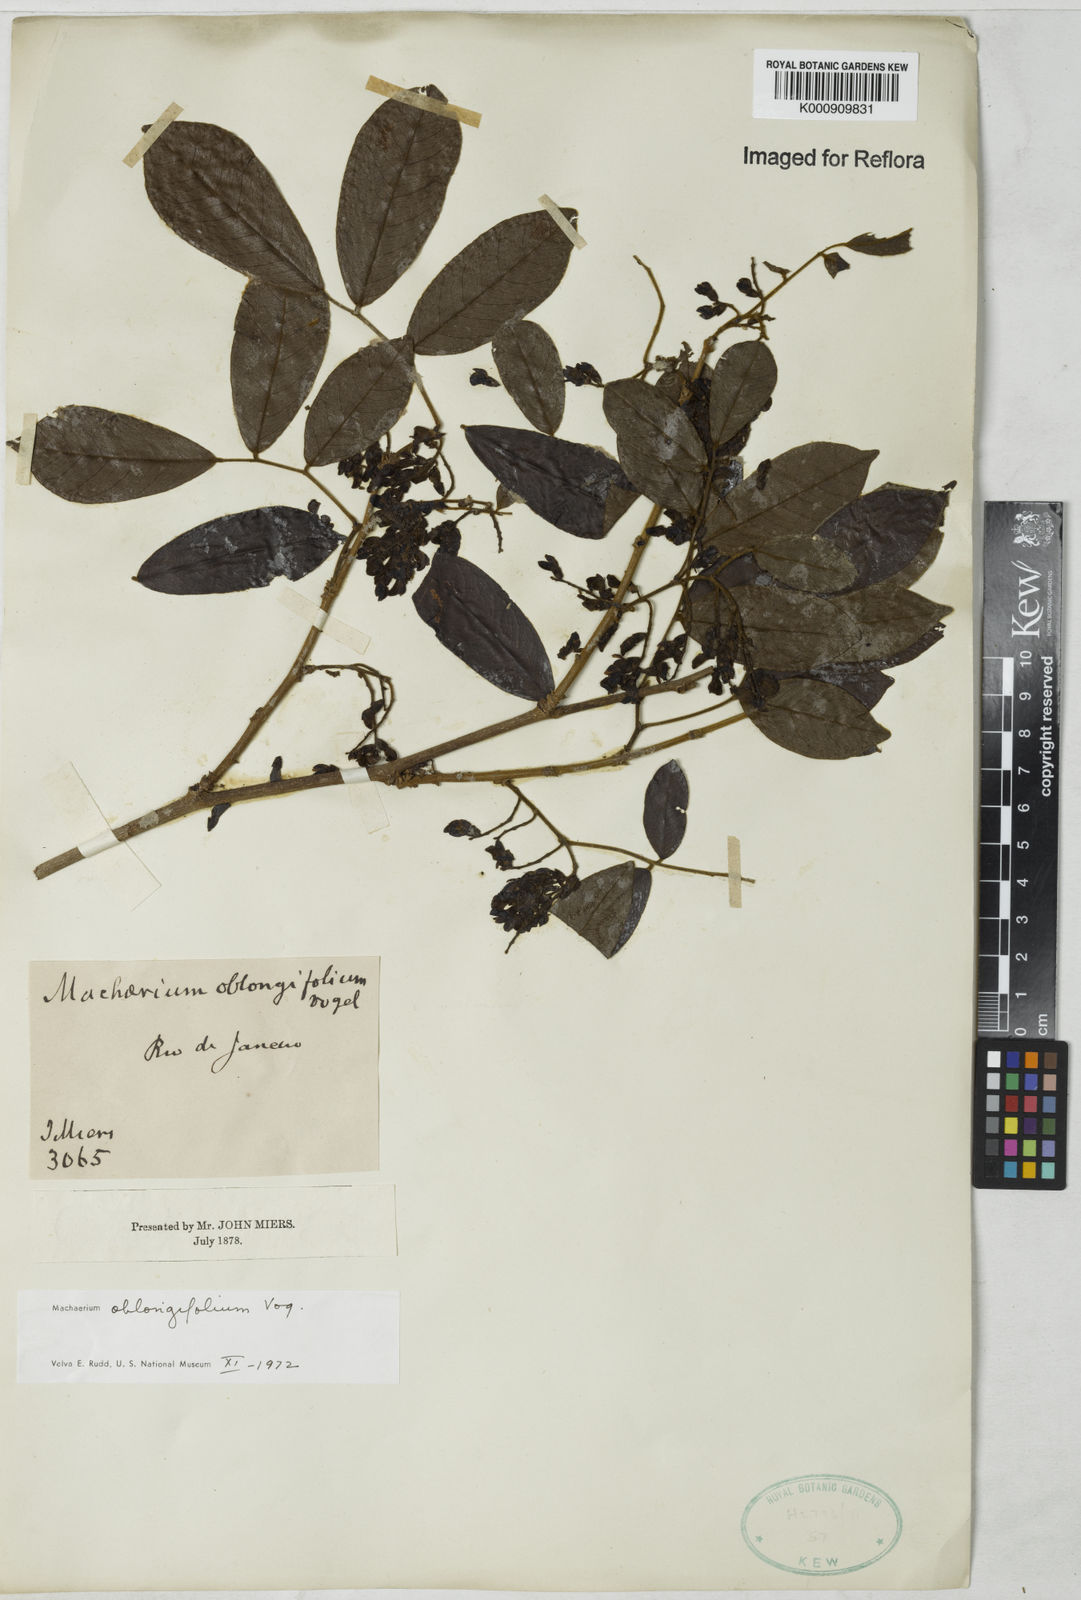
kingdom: Plantae
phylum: Tracheophyta
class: Magnoliopsida
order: Fabales
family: Fabaceae
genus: Machaerium
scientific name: Machaerium oblongifolium
